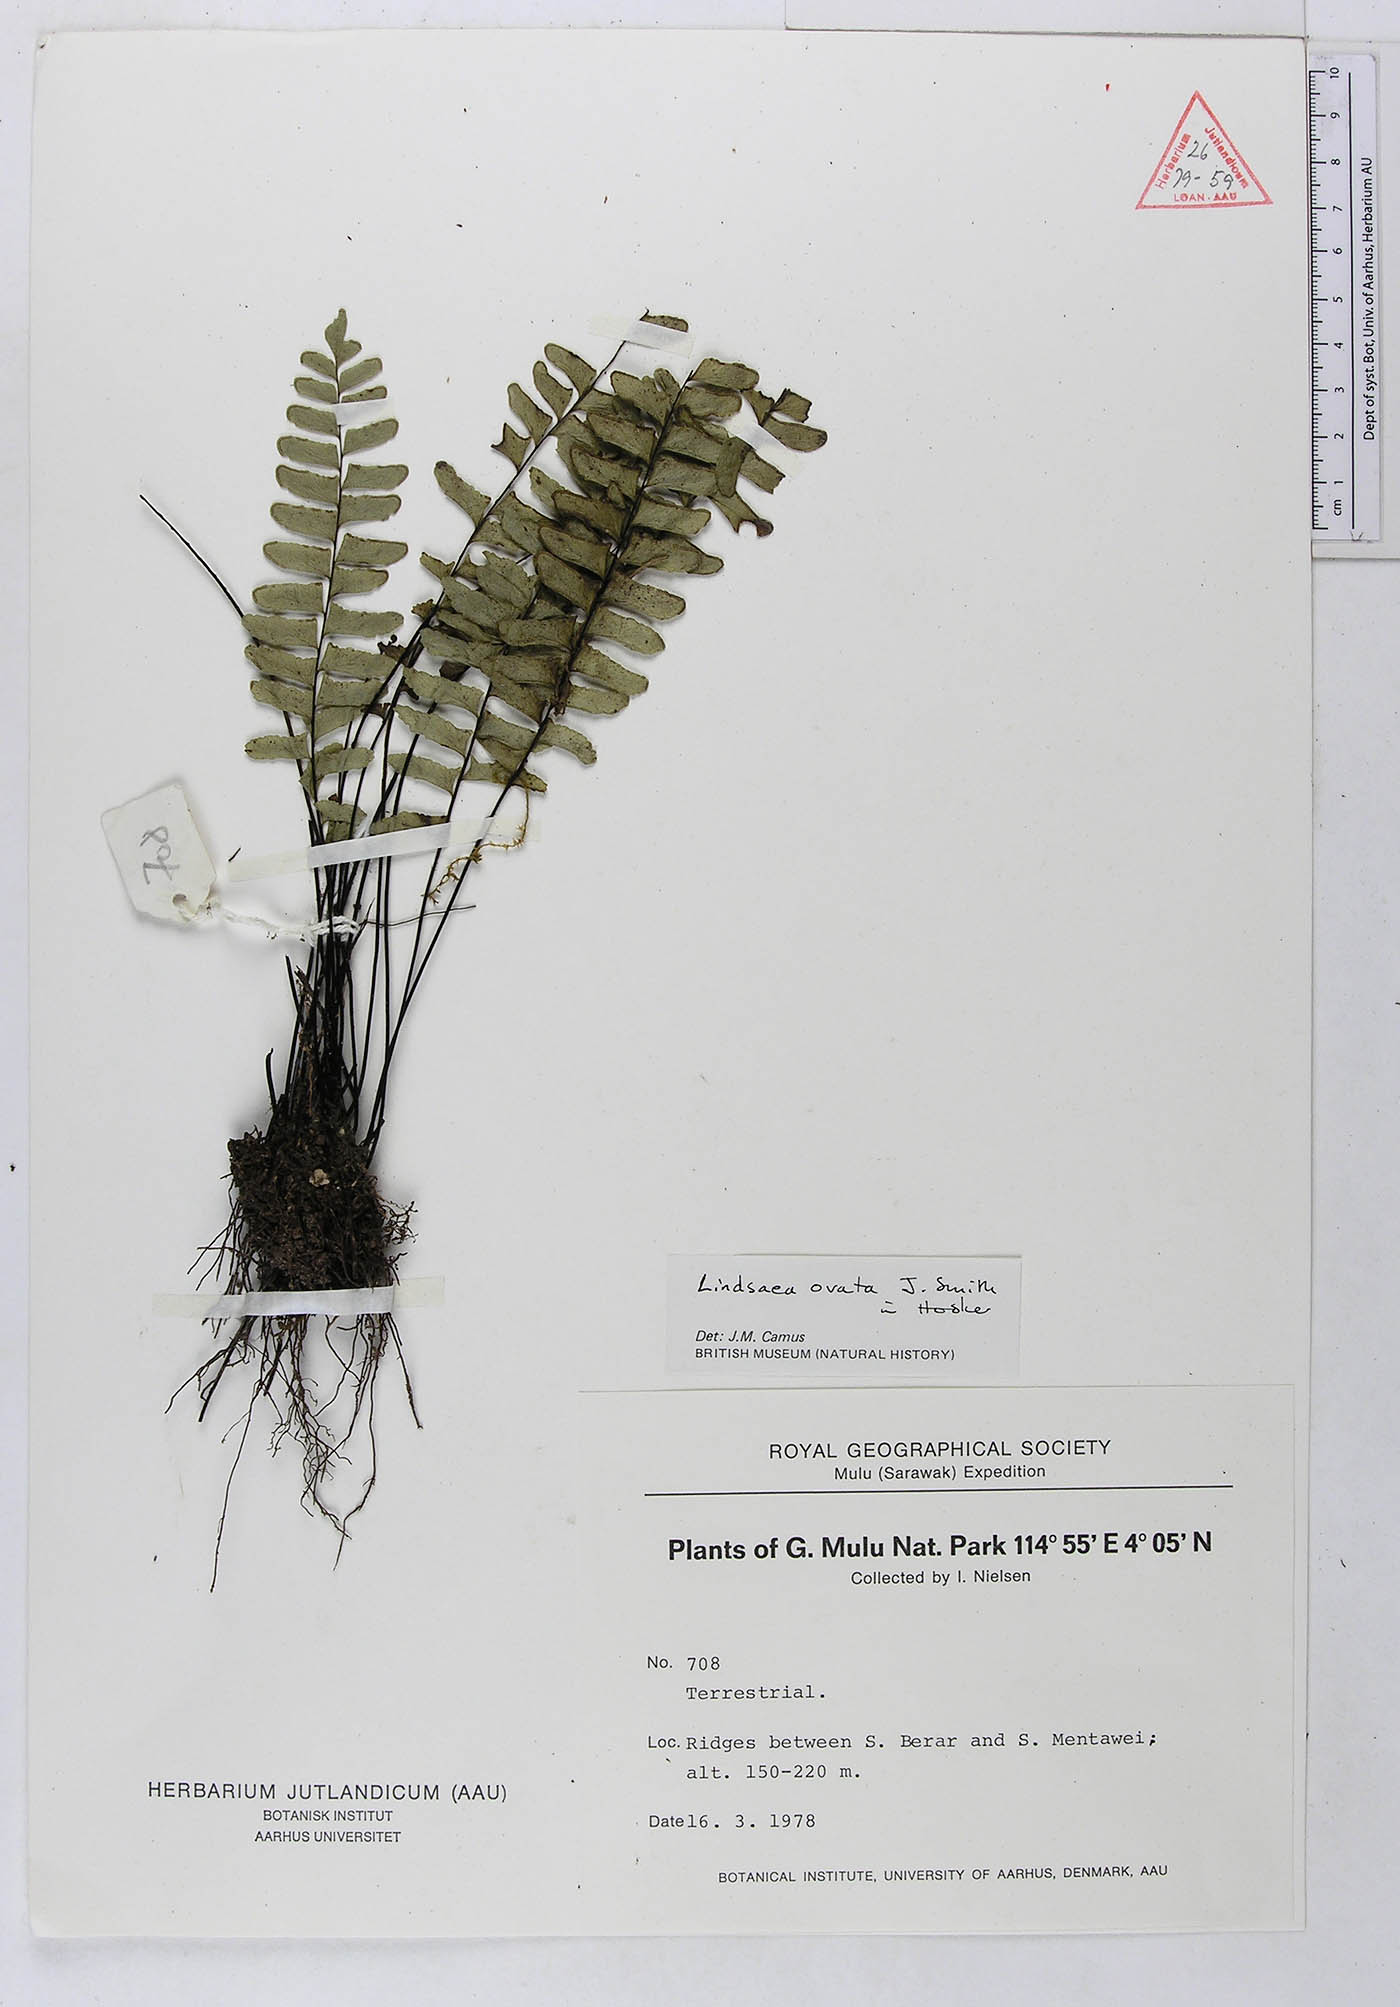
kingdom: Plantae
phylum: Tracheophyta
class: Polypodiopsida
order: Polypodiales
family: Dennstaedtiaceae
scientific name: Dennstaedtiaceae
